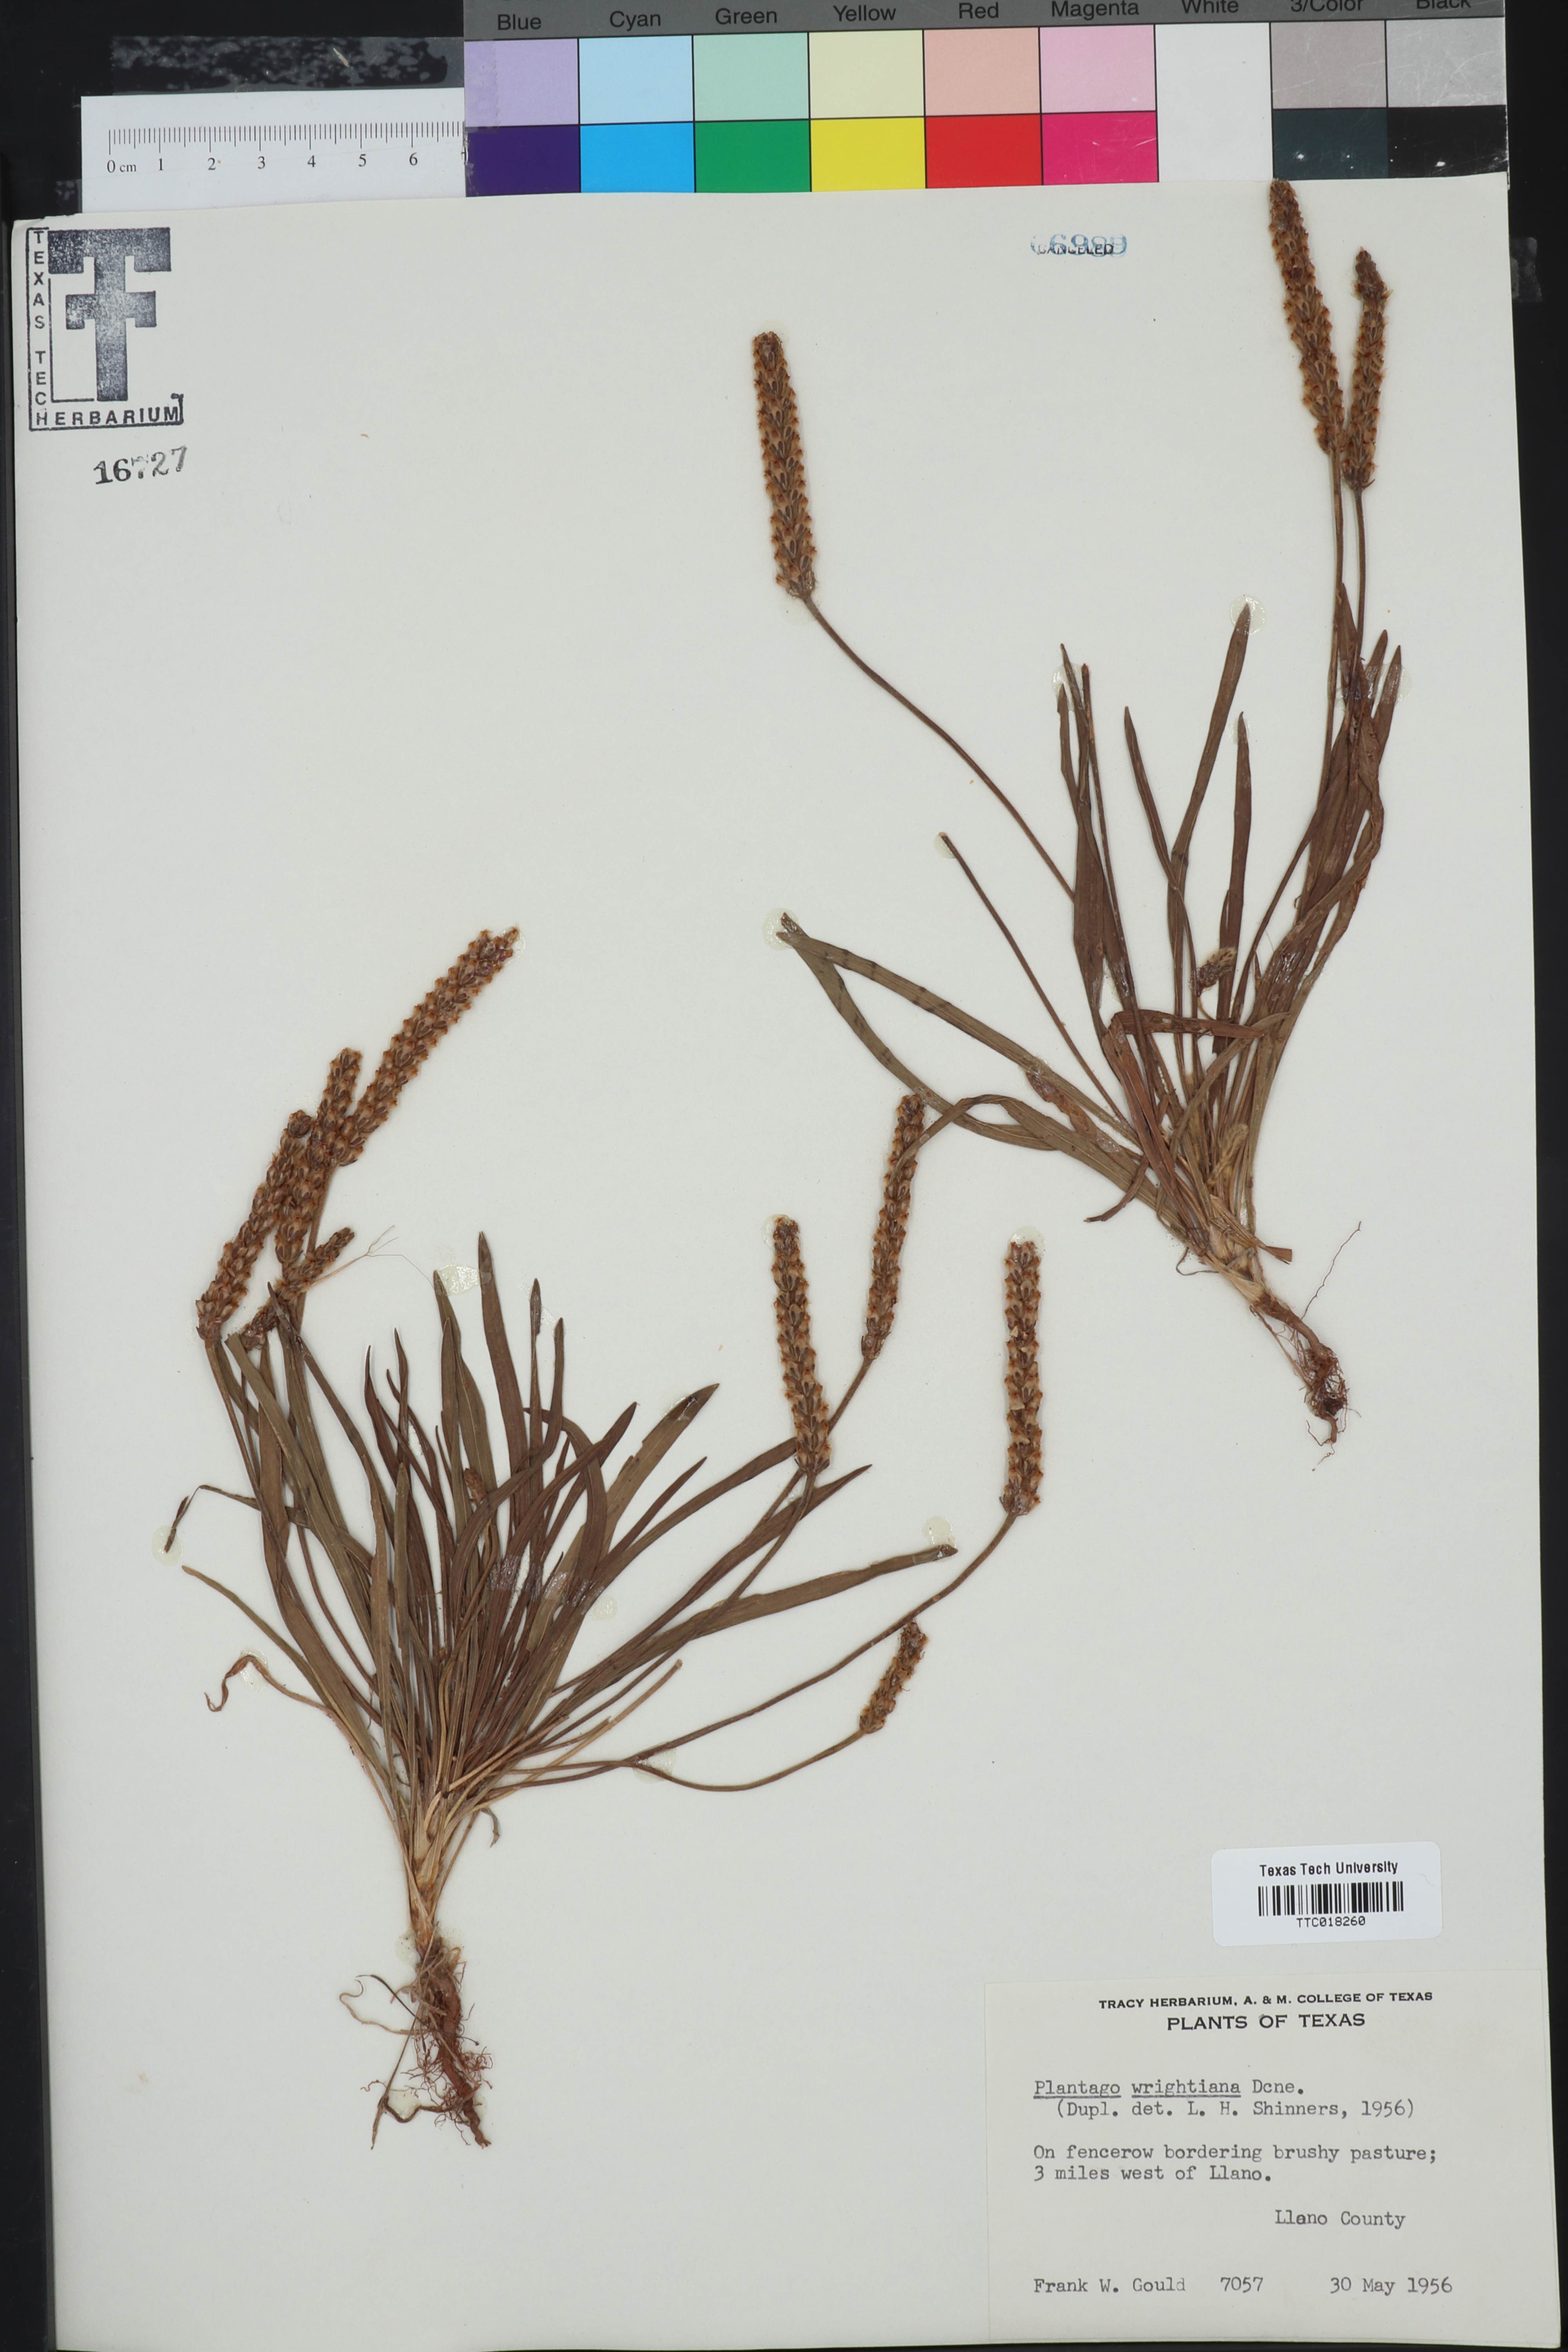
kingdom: Plantae
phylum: Tracheophyta
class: Magnoliopsida
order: Lamiales
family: Plantaginaceae
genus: Plantago
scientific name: Plantago wrightiana
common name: Wright's plantain
